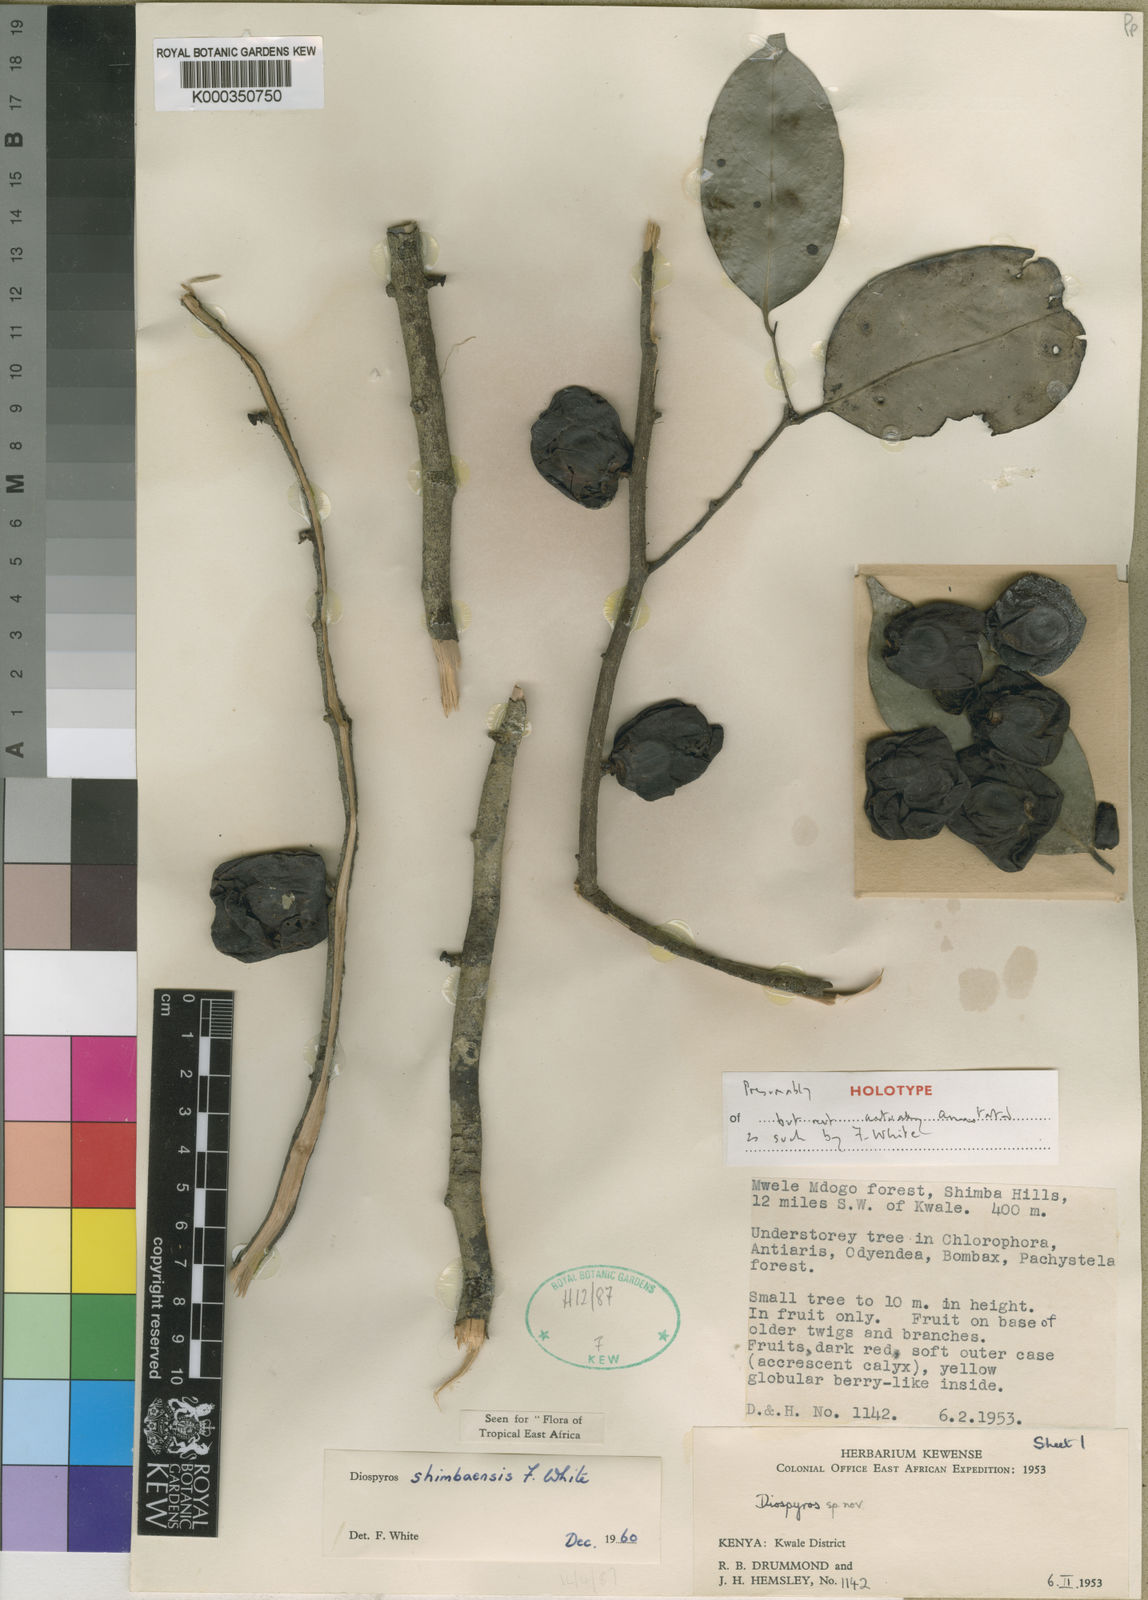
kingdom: Plantae
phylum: Tracheophyta
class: Magnoliopsida
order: Ericales
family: Ebenaceae
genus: Diospyros
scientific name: Diospyros shimbaensis
